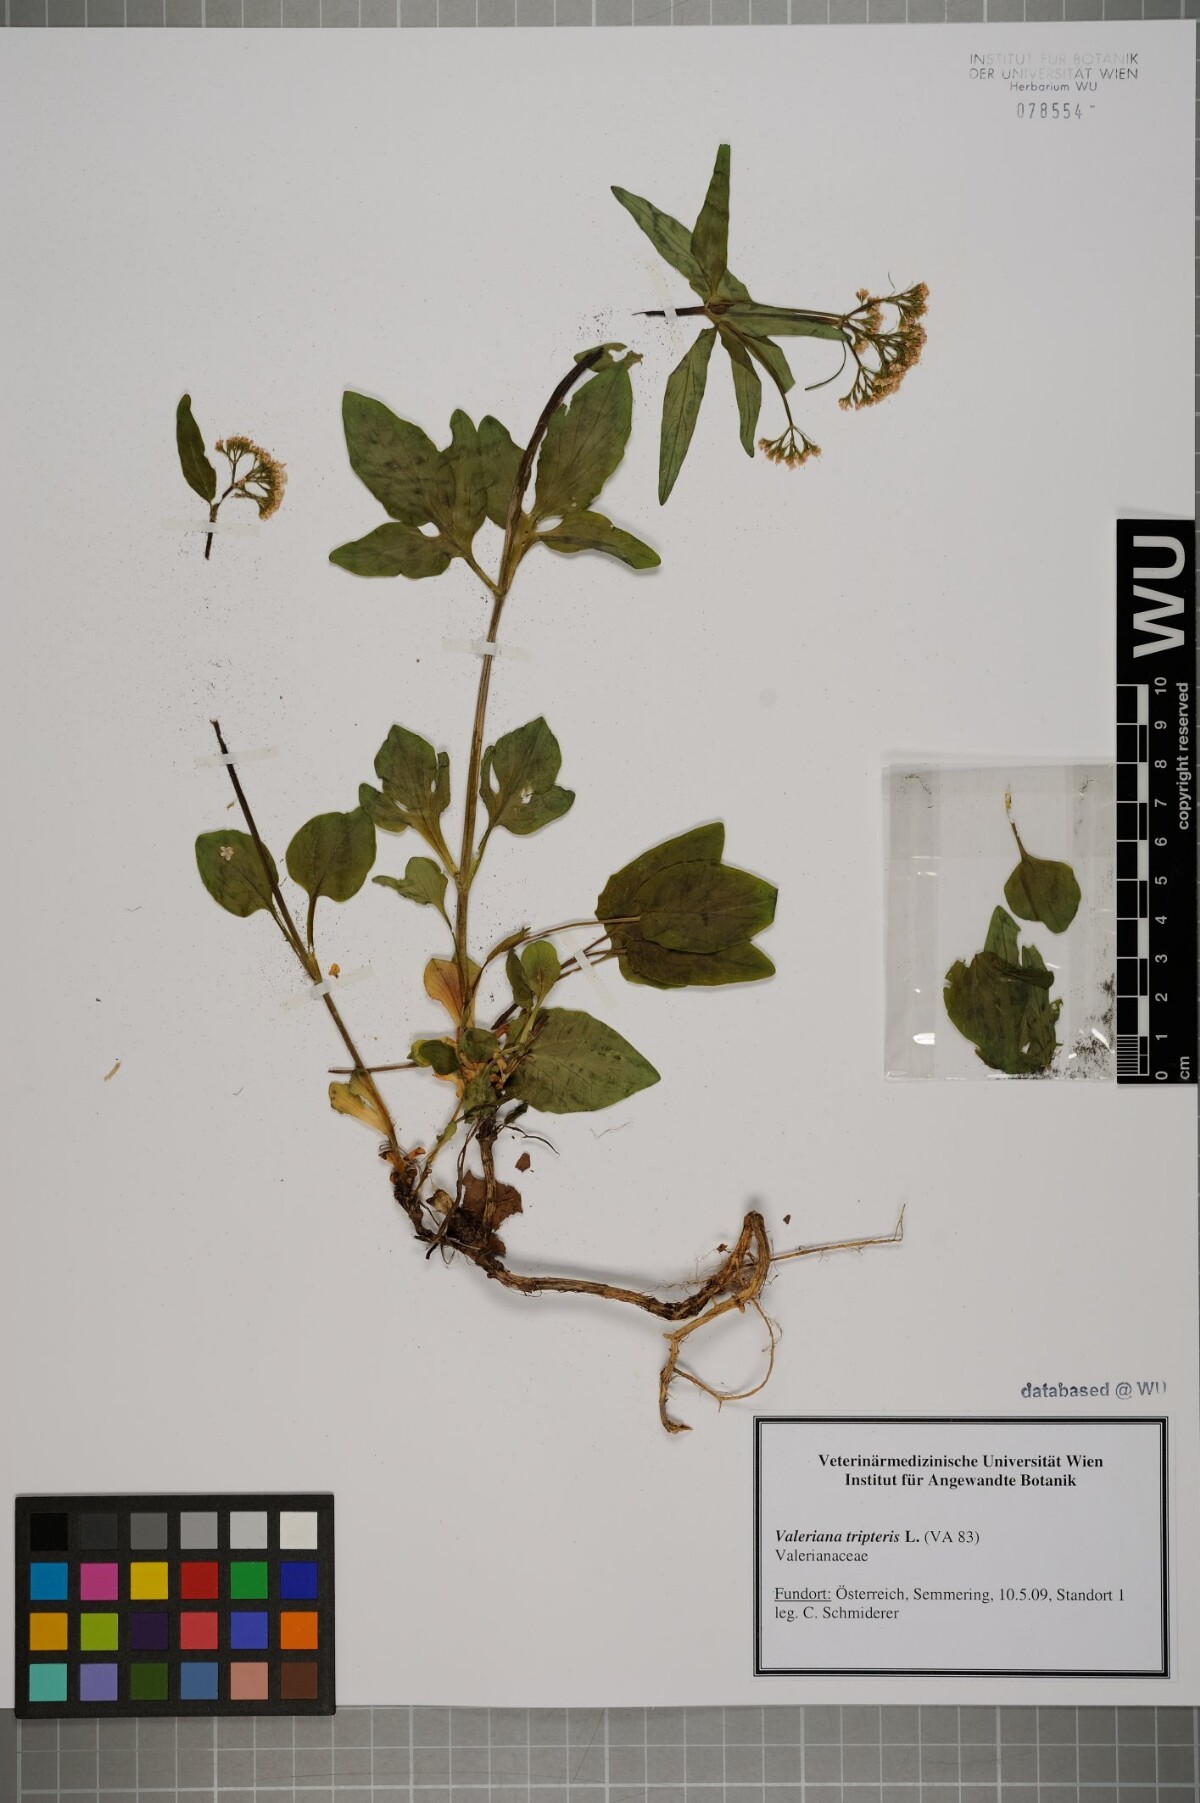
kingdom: Plantae
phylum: Tracheophyta
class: Magnoliopsida
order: Dipsacales
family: Caprifoliaceae
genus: Valeriana
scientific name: Valeriana tripteris
